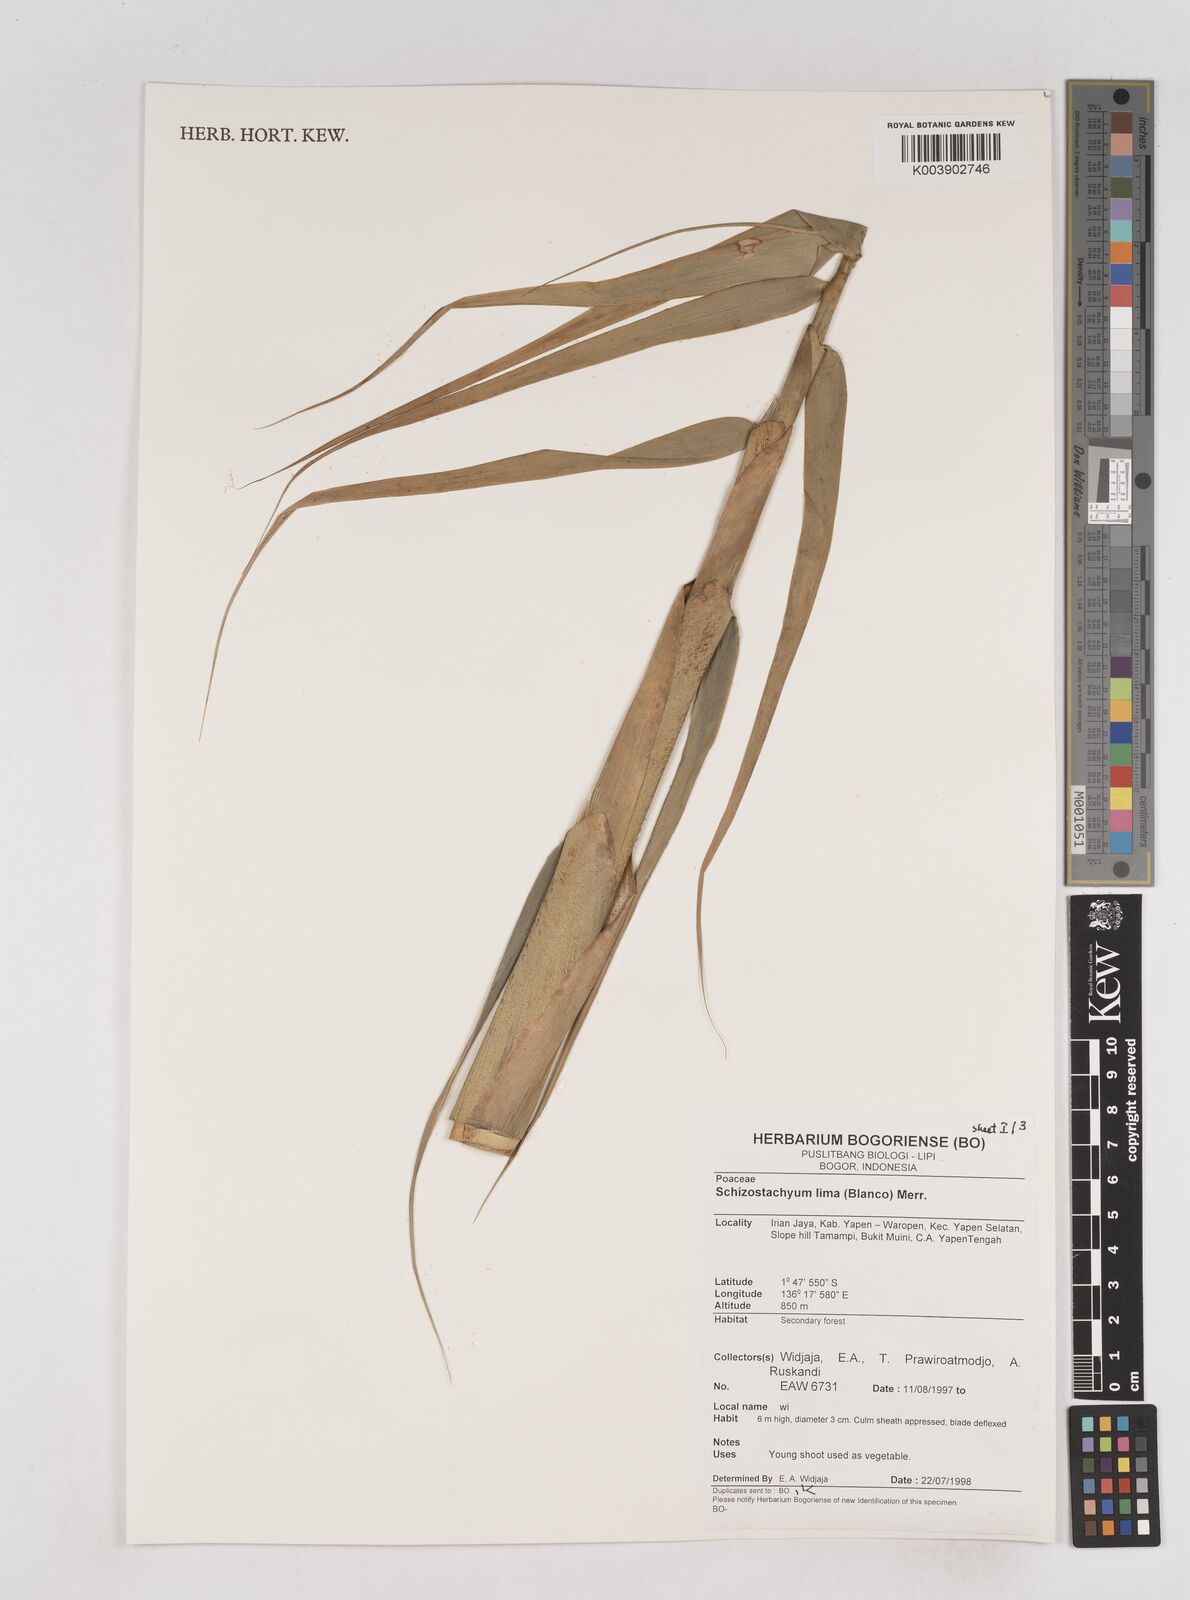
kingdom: Plantae
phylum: Tracheophyta
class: Liliopsida
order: Poales
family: Poaceae
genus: Schizostachyum
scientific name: Schizostachyum lima
